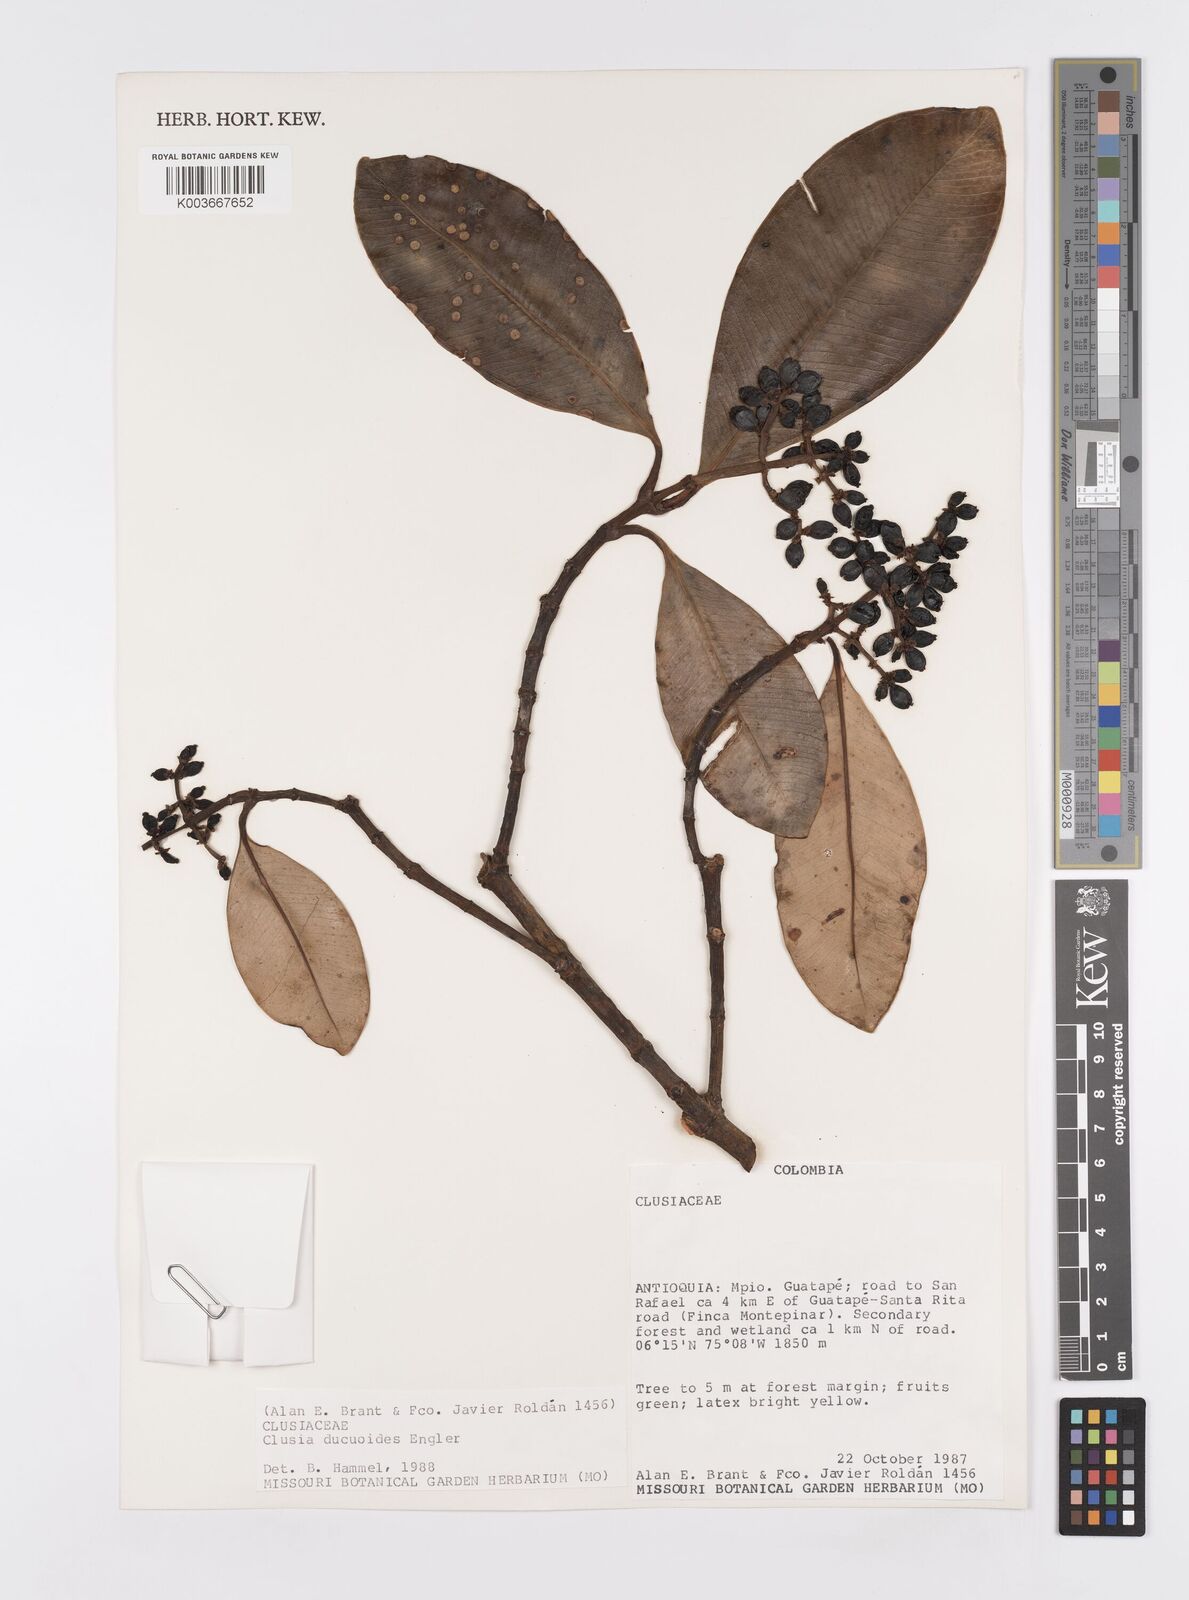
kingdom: Plantae
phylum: Tracheophyta
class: Magnoliopsida
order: Malpighiales
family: Clusiaceae
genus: Clusia
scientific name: Clusia ducuoides
